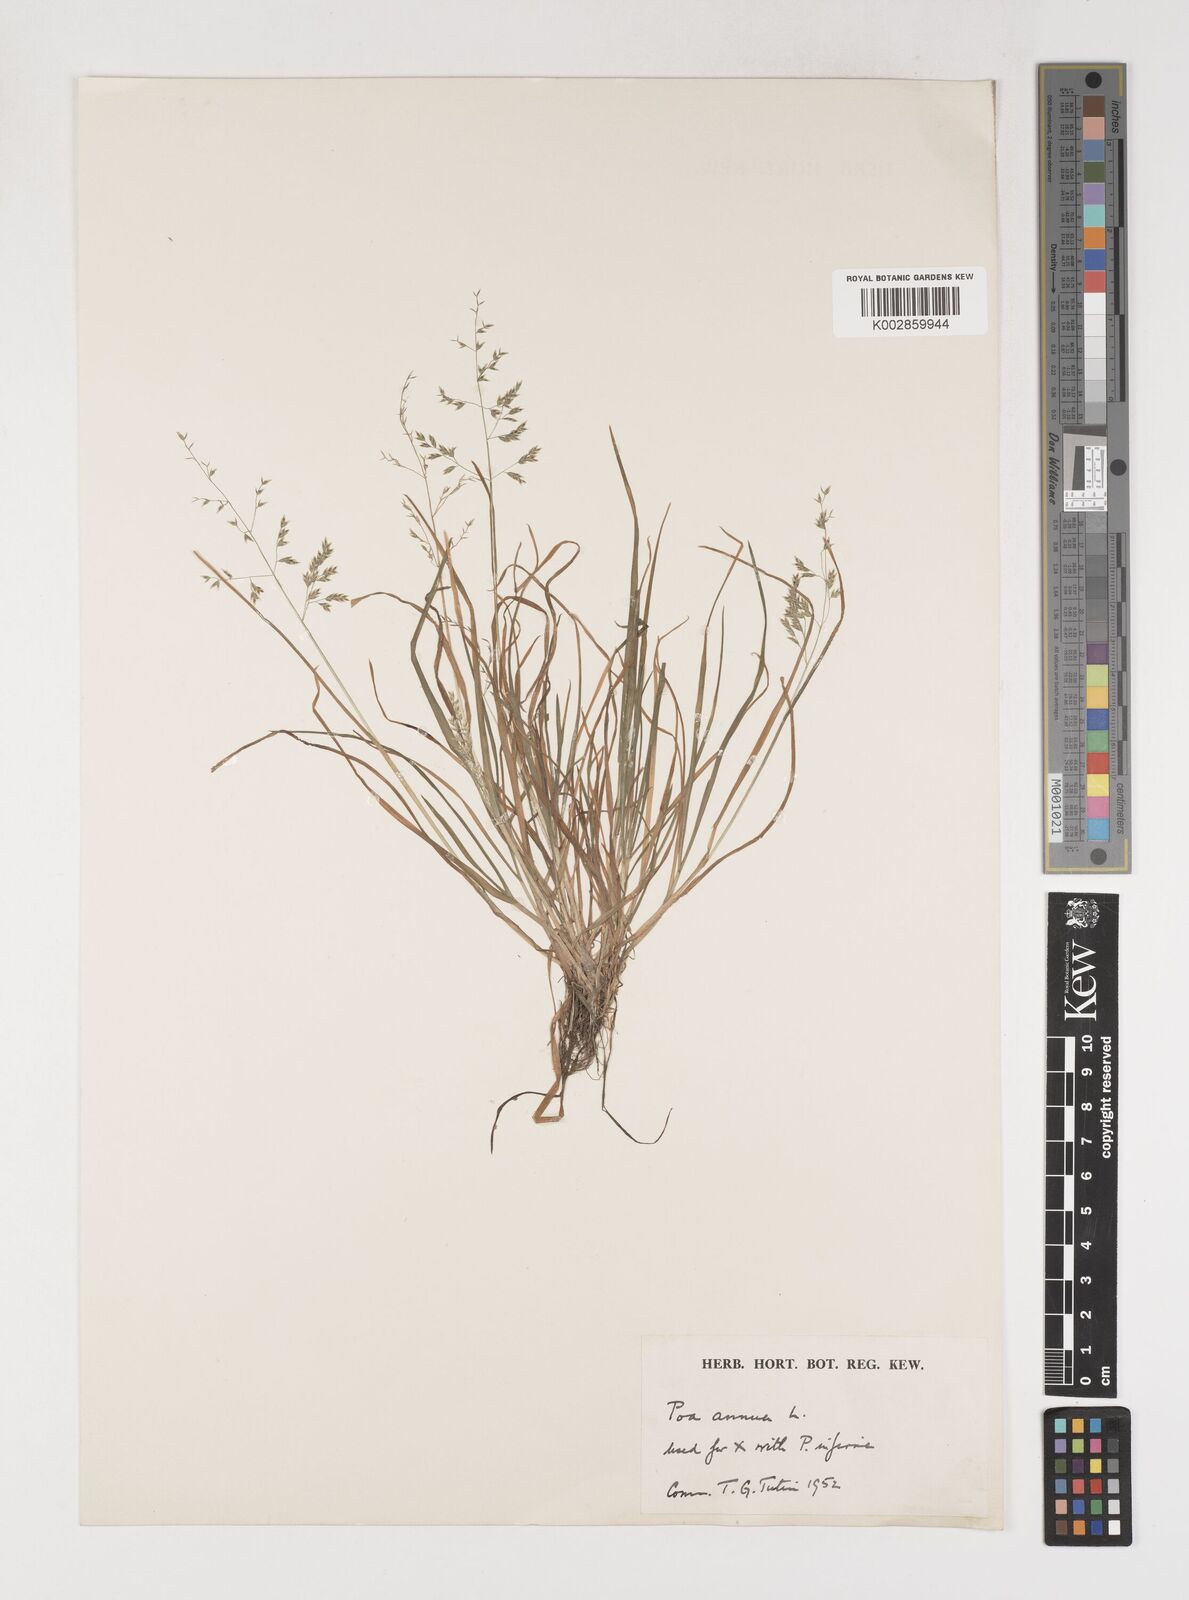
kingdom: Plantae
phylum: Tracheophyta
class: Liliopsida
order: Poales
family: Poaceae
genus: Poa
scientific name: Poa annua
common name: Annual bluegrass
